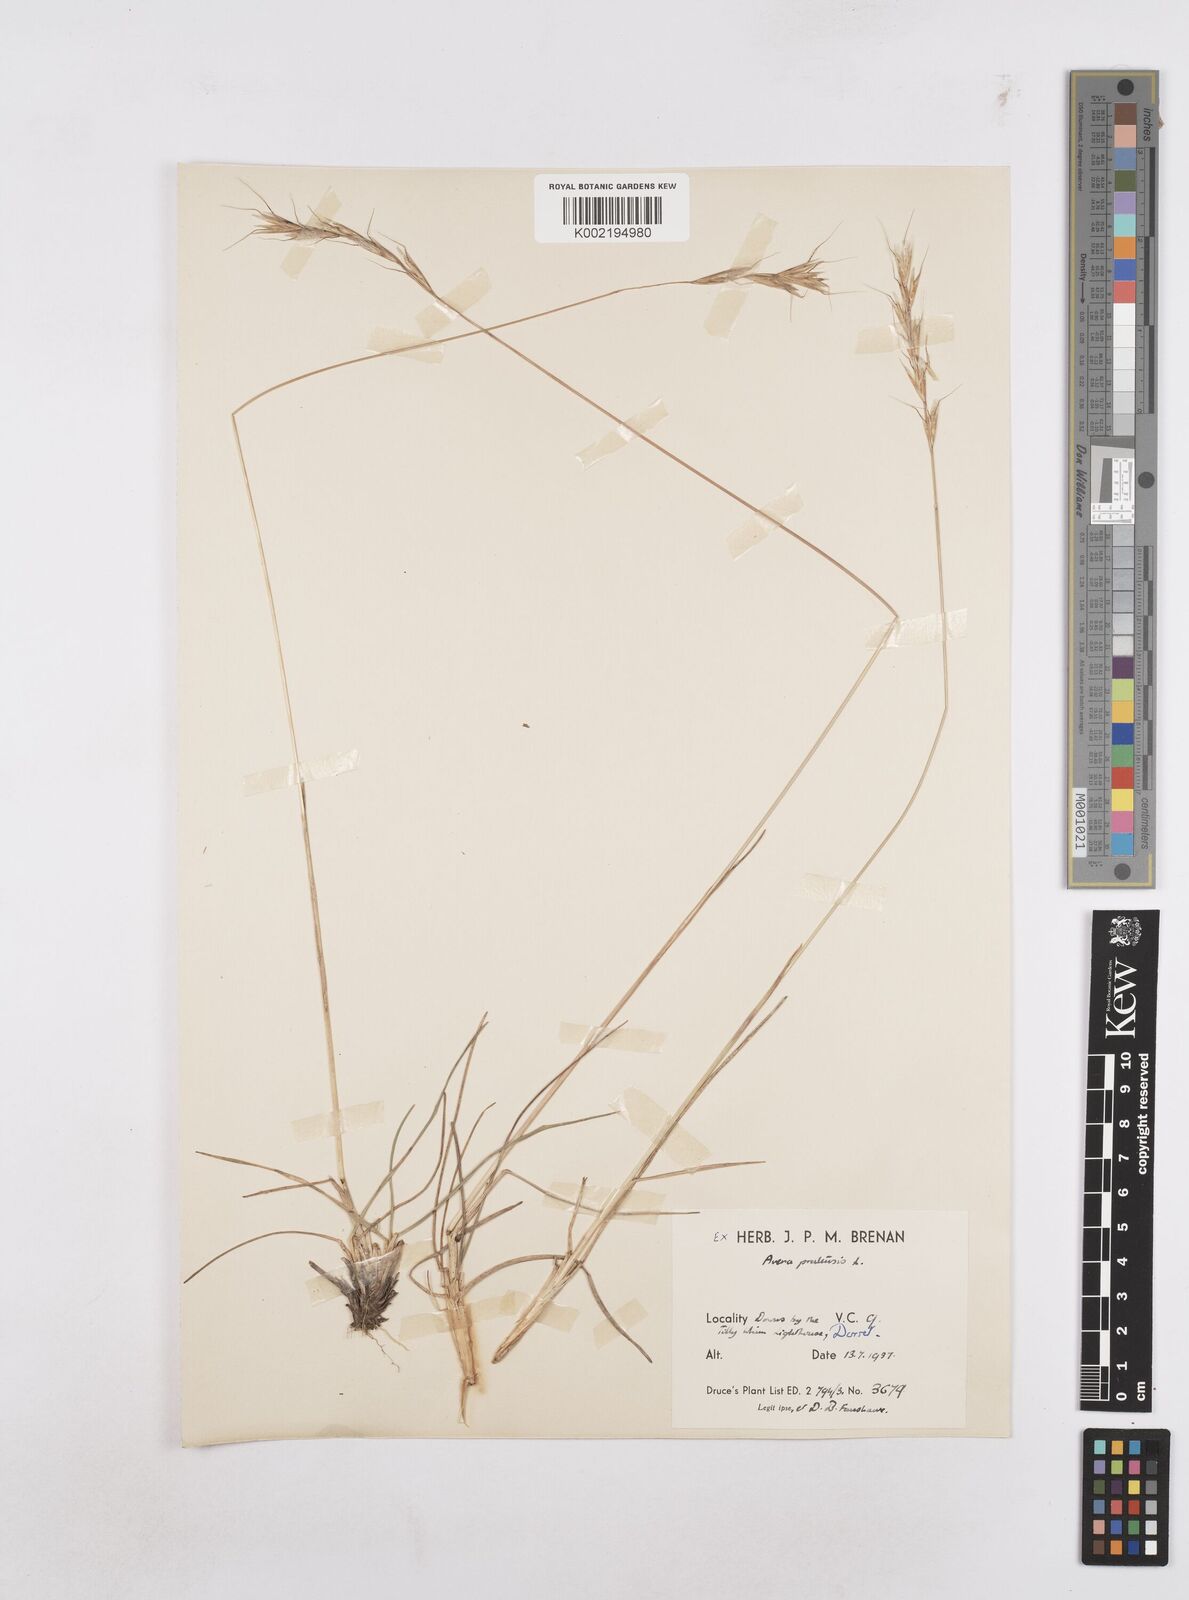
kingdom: Plantae
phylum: Tracheophyta
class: Liliopsida
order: Poales
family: Poaceae
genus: Helictochloa
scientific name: Helictochloa pratensis
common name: Meadow oat grass
